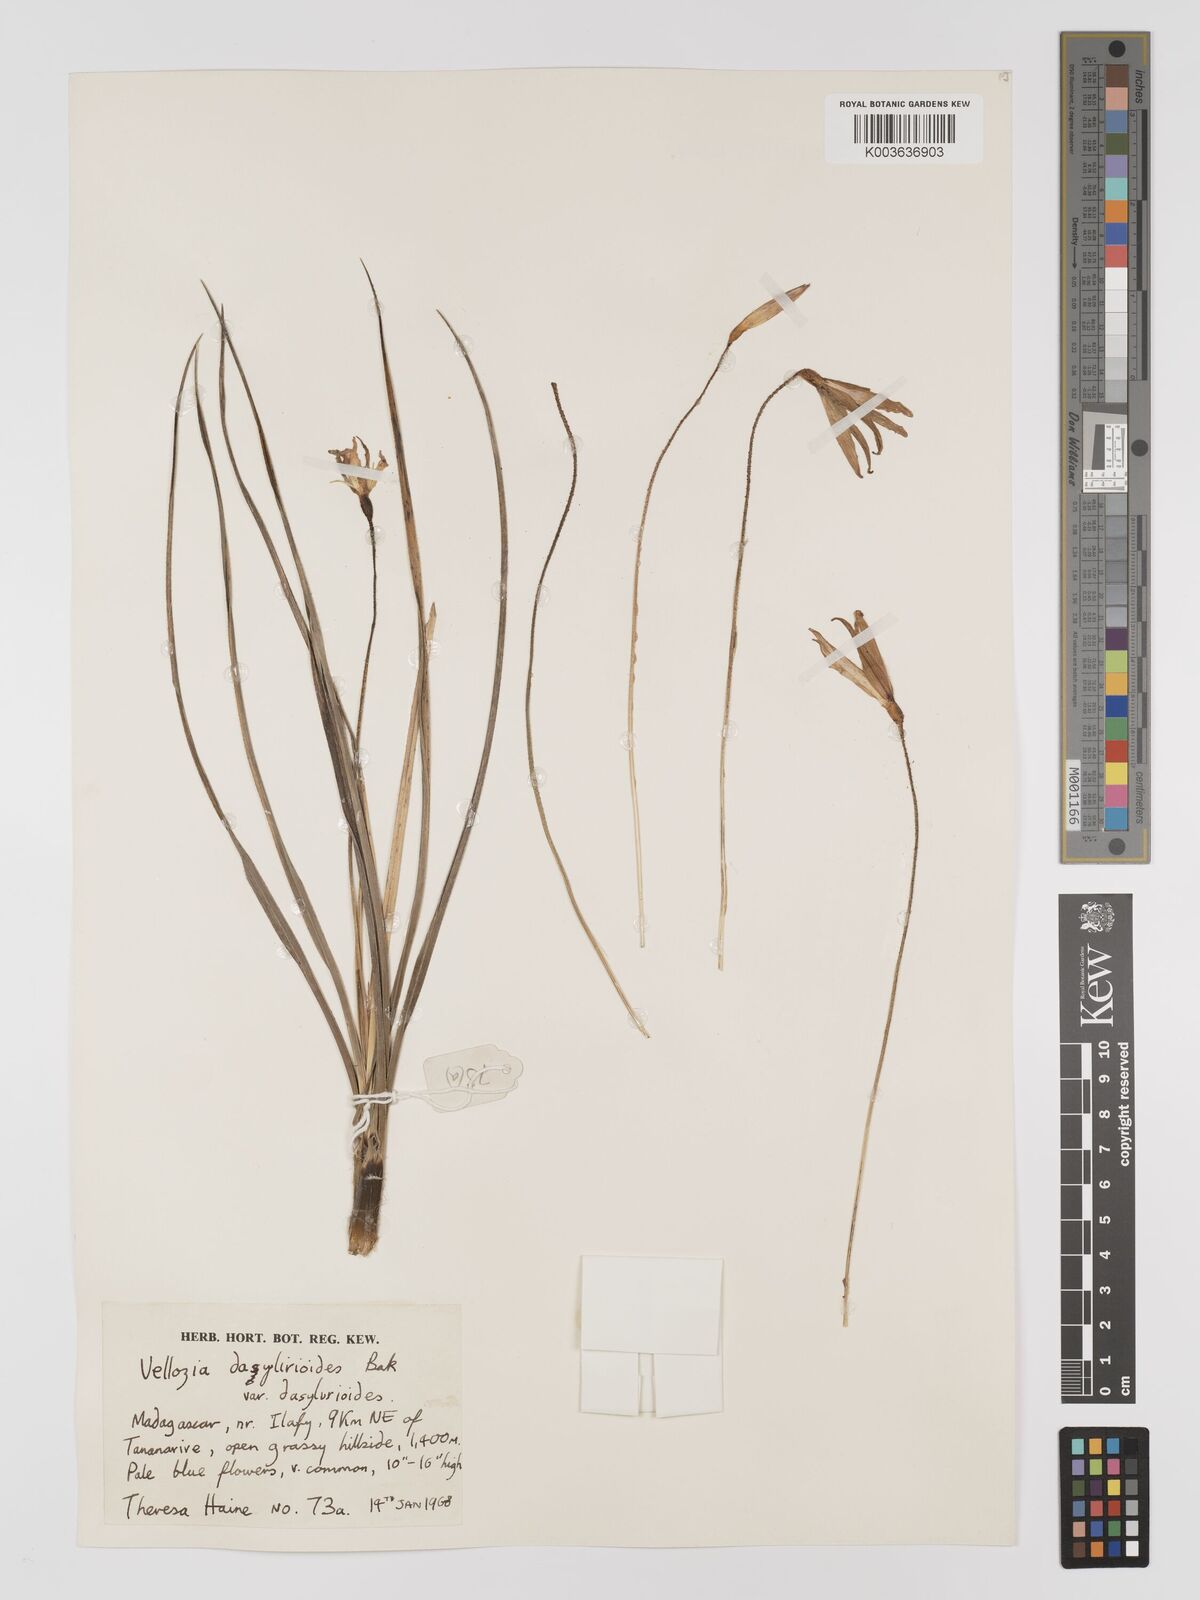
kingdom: Plantae
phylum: Tracheophyta
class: Liliopsida
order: Pandanales
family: Velloziaceae
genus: Xerophyta
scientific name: Xerophyta dasylirioides
